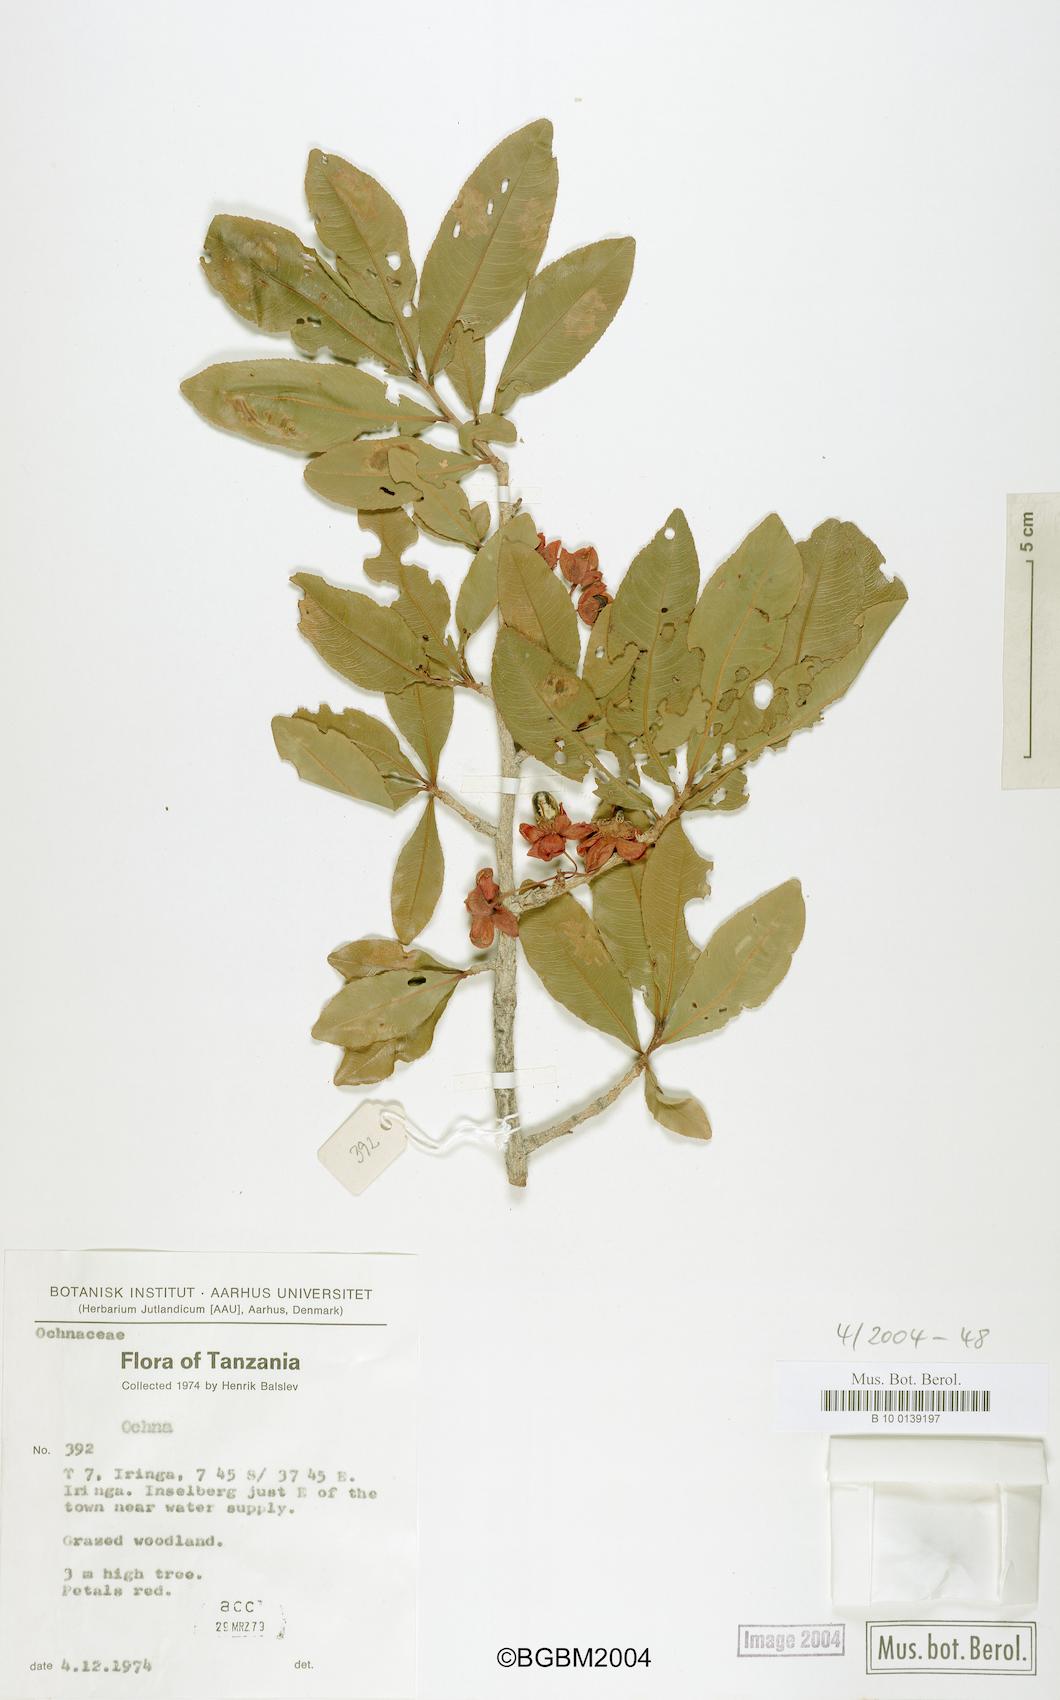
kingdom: Plantae
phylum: Tracheophyta
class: Magnoliopsida
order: Malpighiales
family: Ochnaceae
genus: Ochna
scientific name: Ochna
